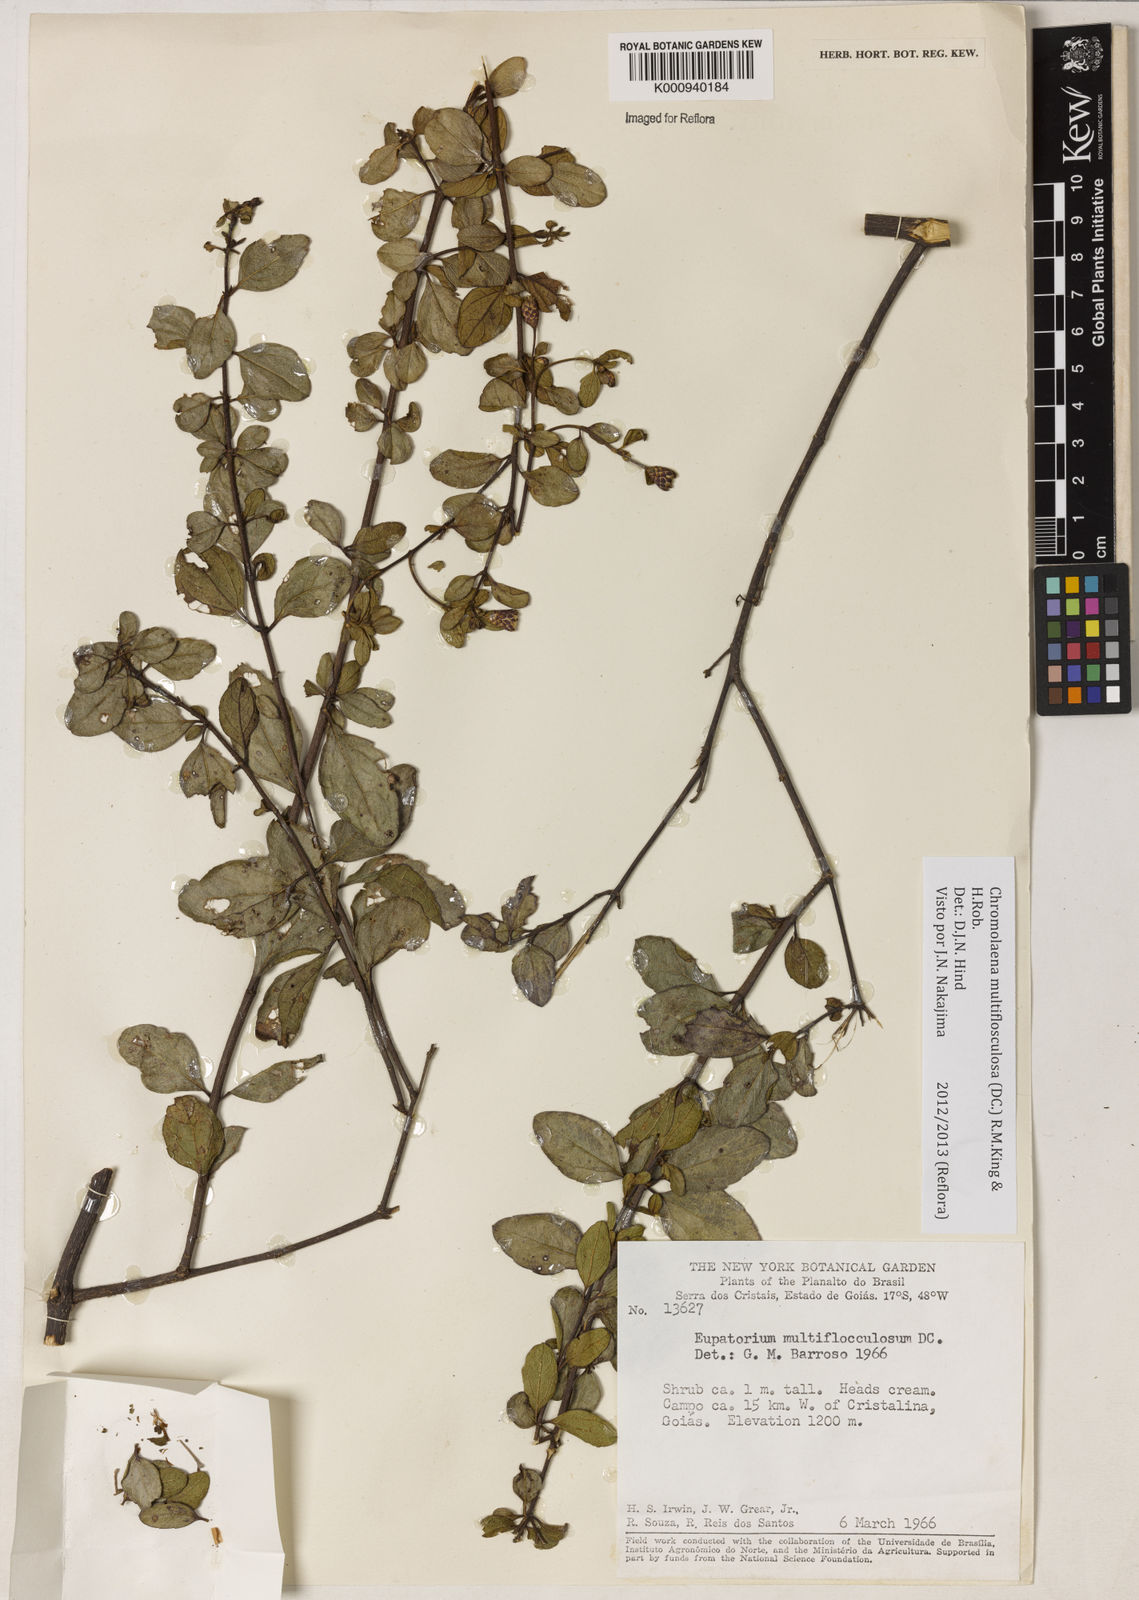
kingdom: Plantae
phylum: Tracheophyta
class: Magnoliopsida
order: Asterales
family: Asteraceae
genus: Chromolaena
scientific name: Chromolaena multiflosculosa
